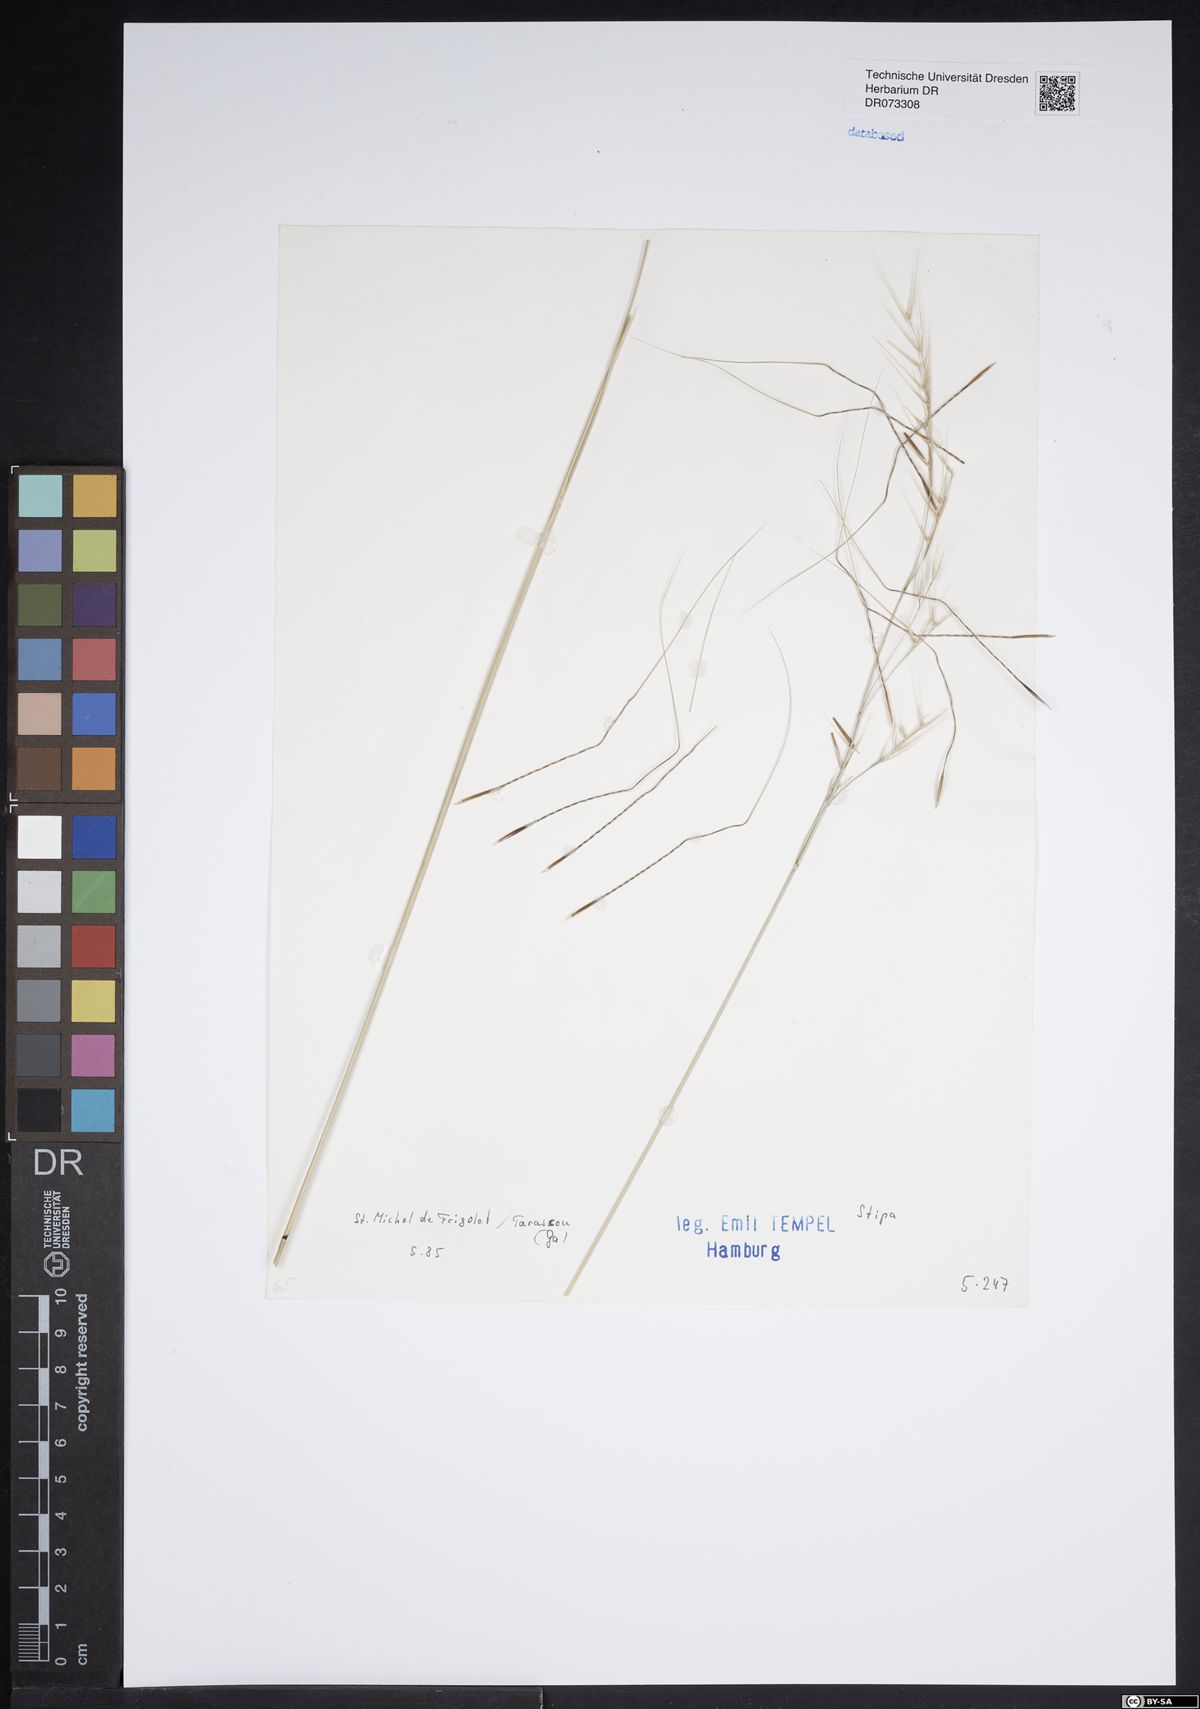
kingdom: Plantae
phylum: Tracheophyta
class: Liliopsida
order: Poales
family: Poaceae
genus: Stipa
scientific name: Stipa
